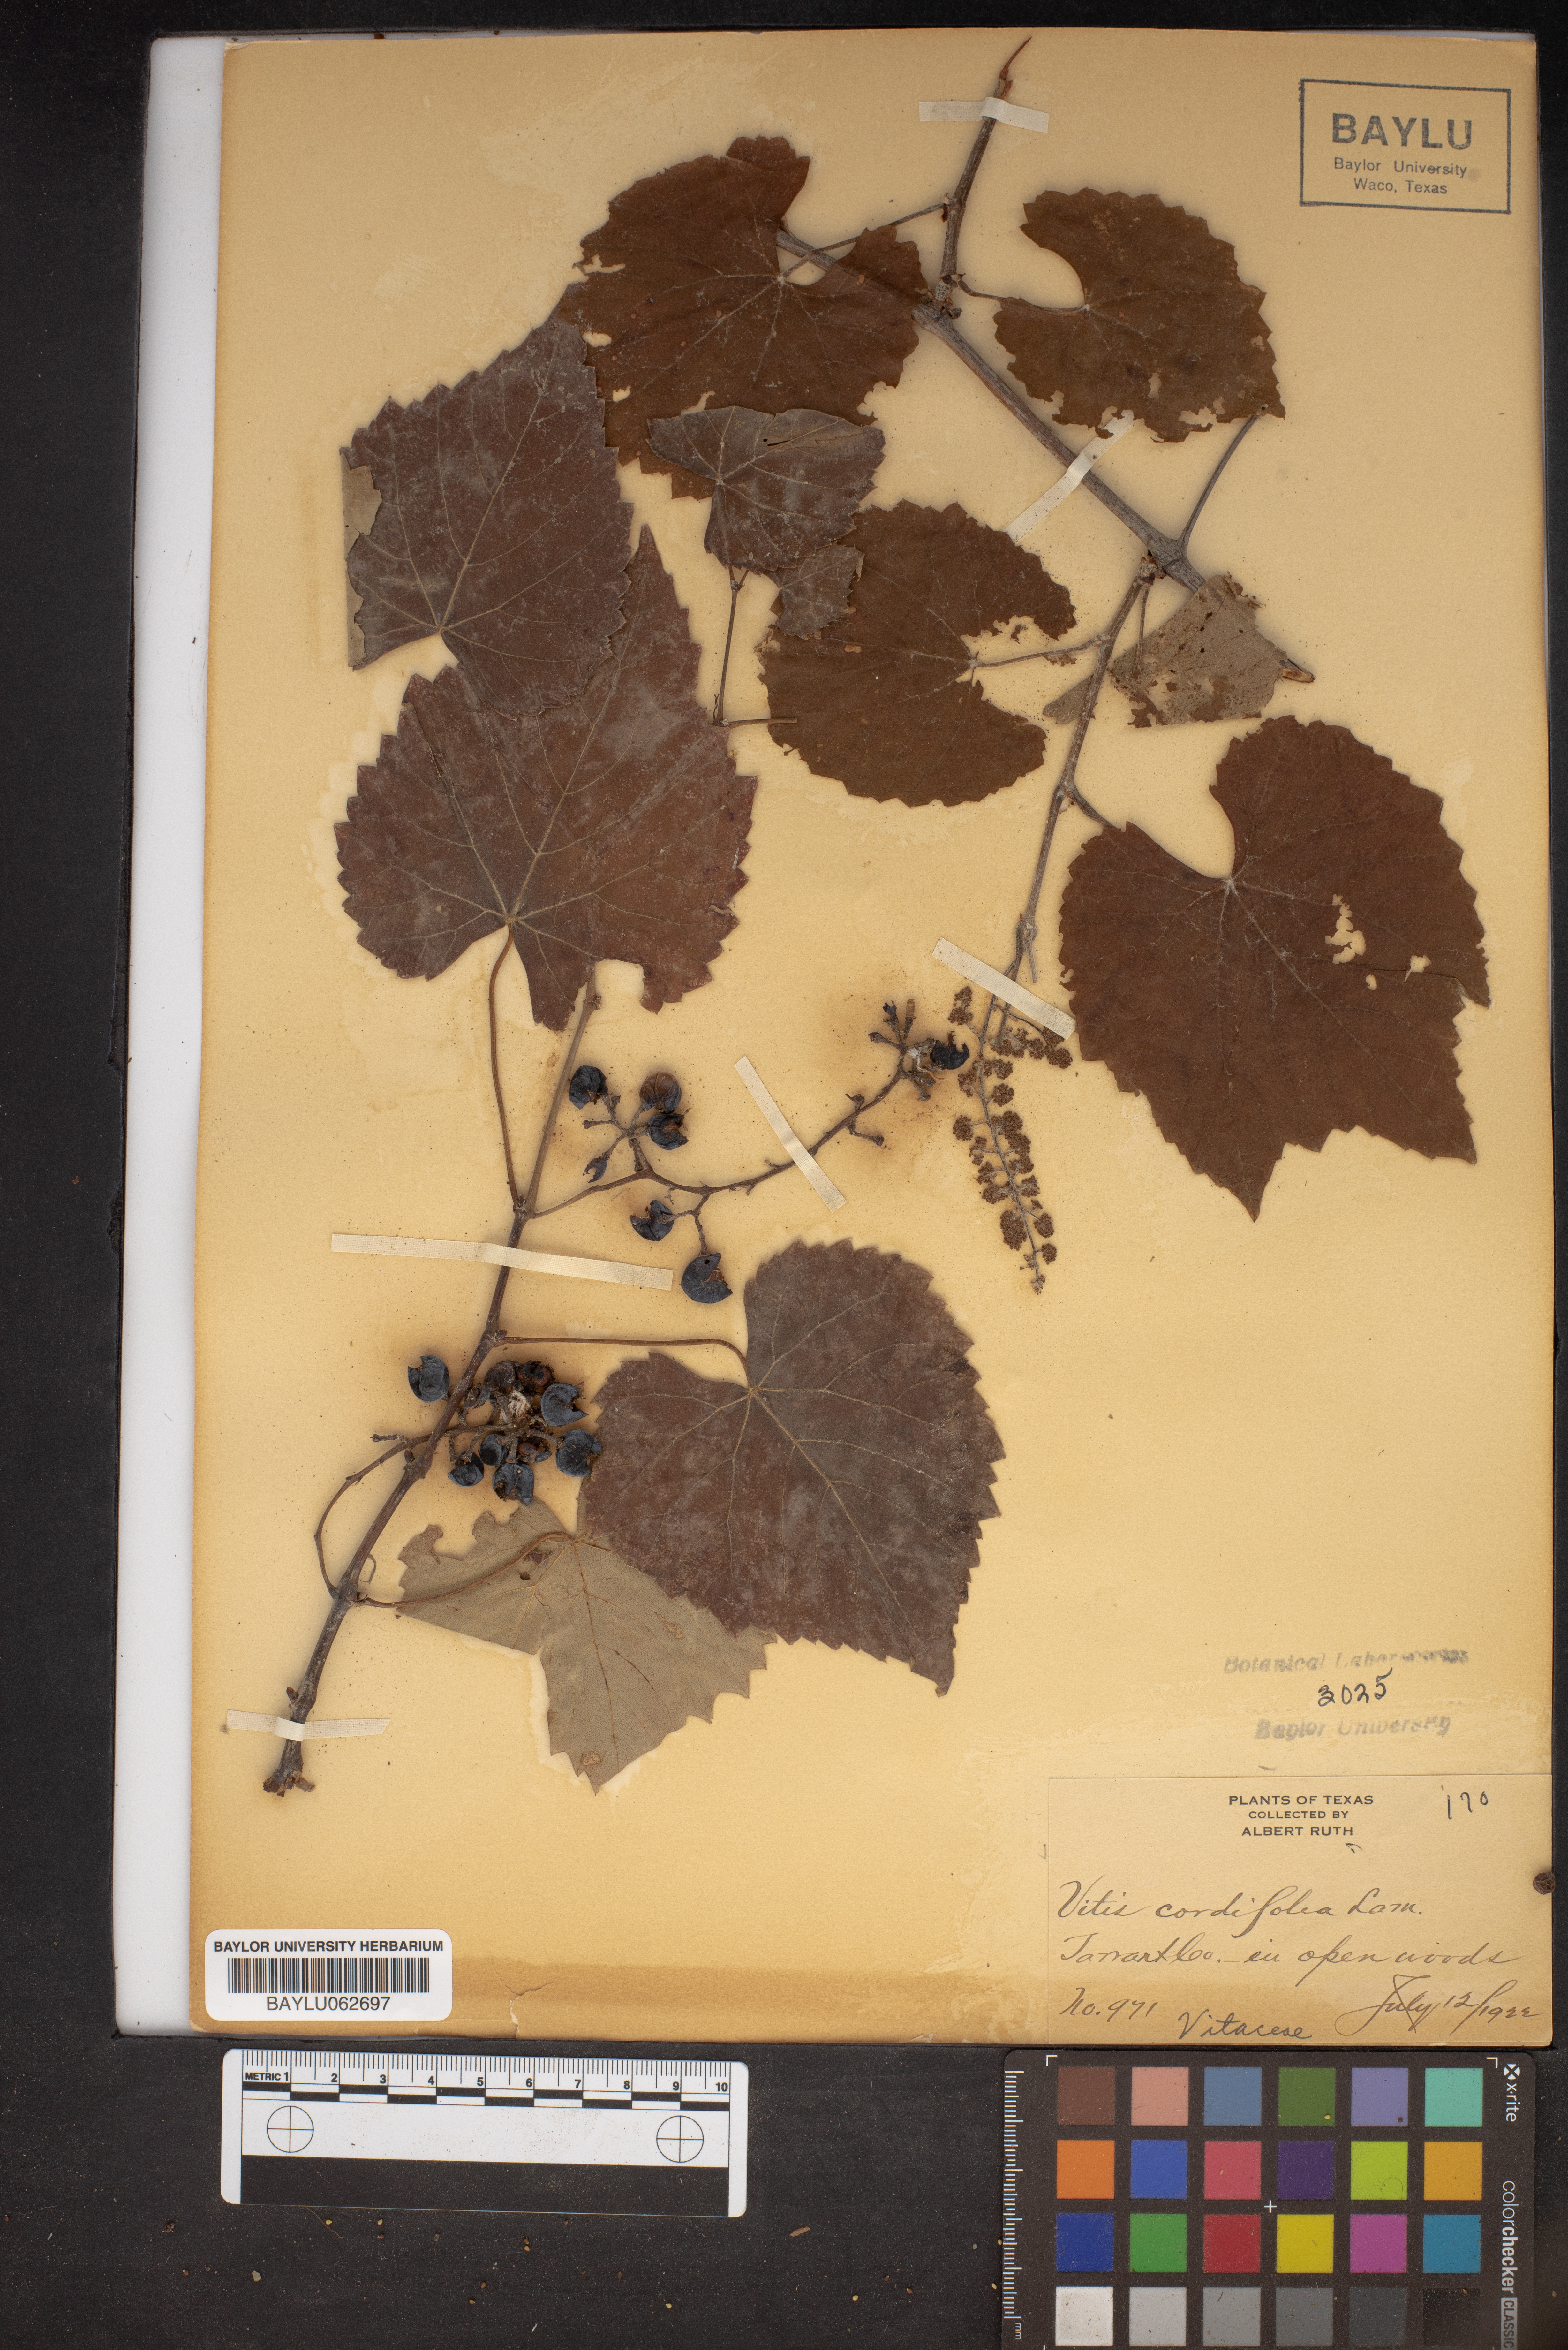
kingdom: Plantae
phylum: Tracheophyta
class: Magnoliopsida
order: Vitales
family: Vitaceae
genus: Vitis
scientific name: Vitis cordifolia
